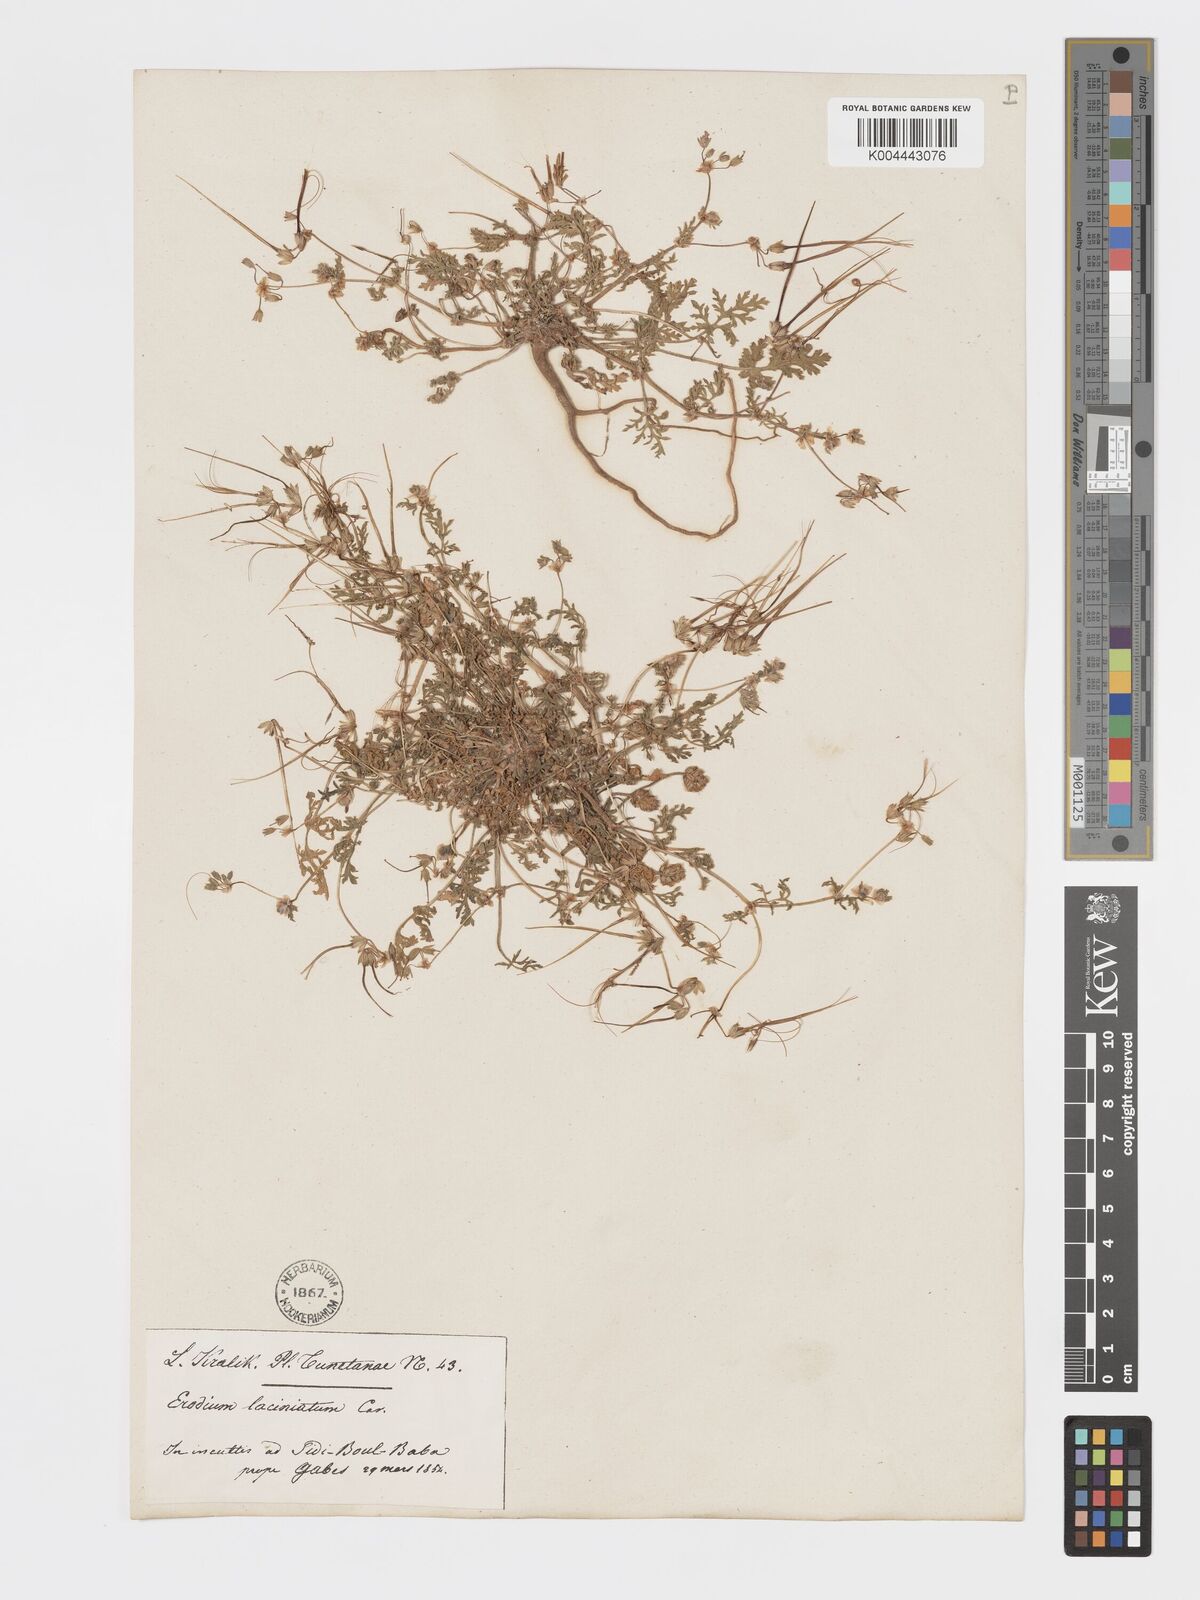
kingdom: Plantae
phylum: Tracheophyta
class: Magnoliopsida
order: Geraniales
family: Geraniaceae
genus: Erodium
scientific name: Erodium laciniatum
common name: Cutleaf stork's bill
